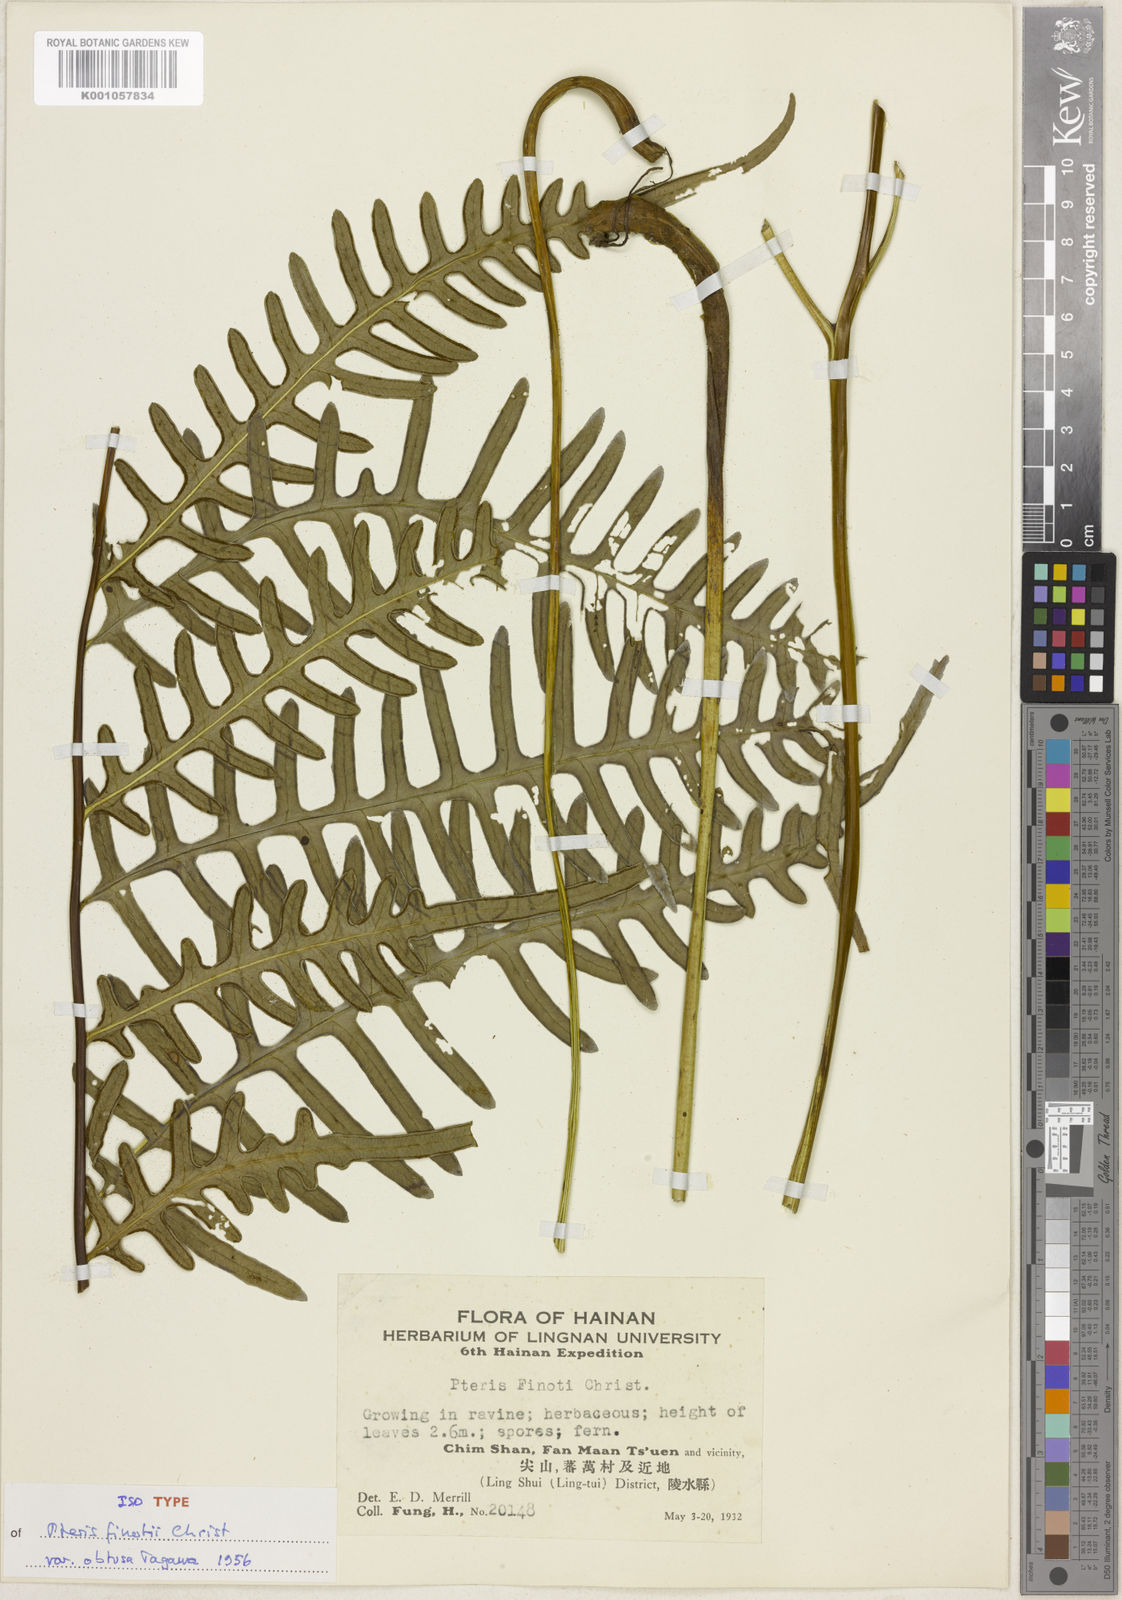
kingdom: Plantae
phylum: Tracheophyta
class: Polypodiopsida
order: Polypodiales
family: Pteridaceae
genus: Pteris
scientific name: Pteris finotii
